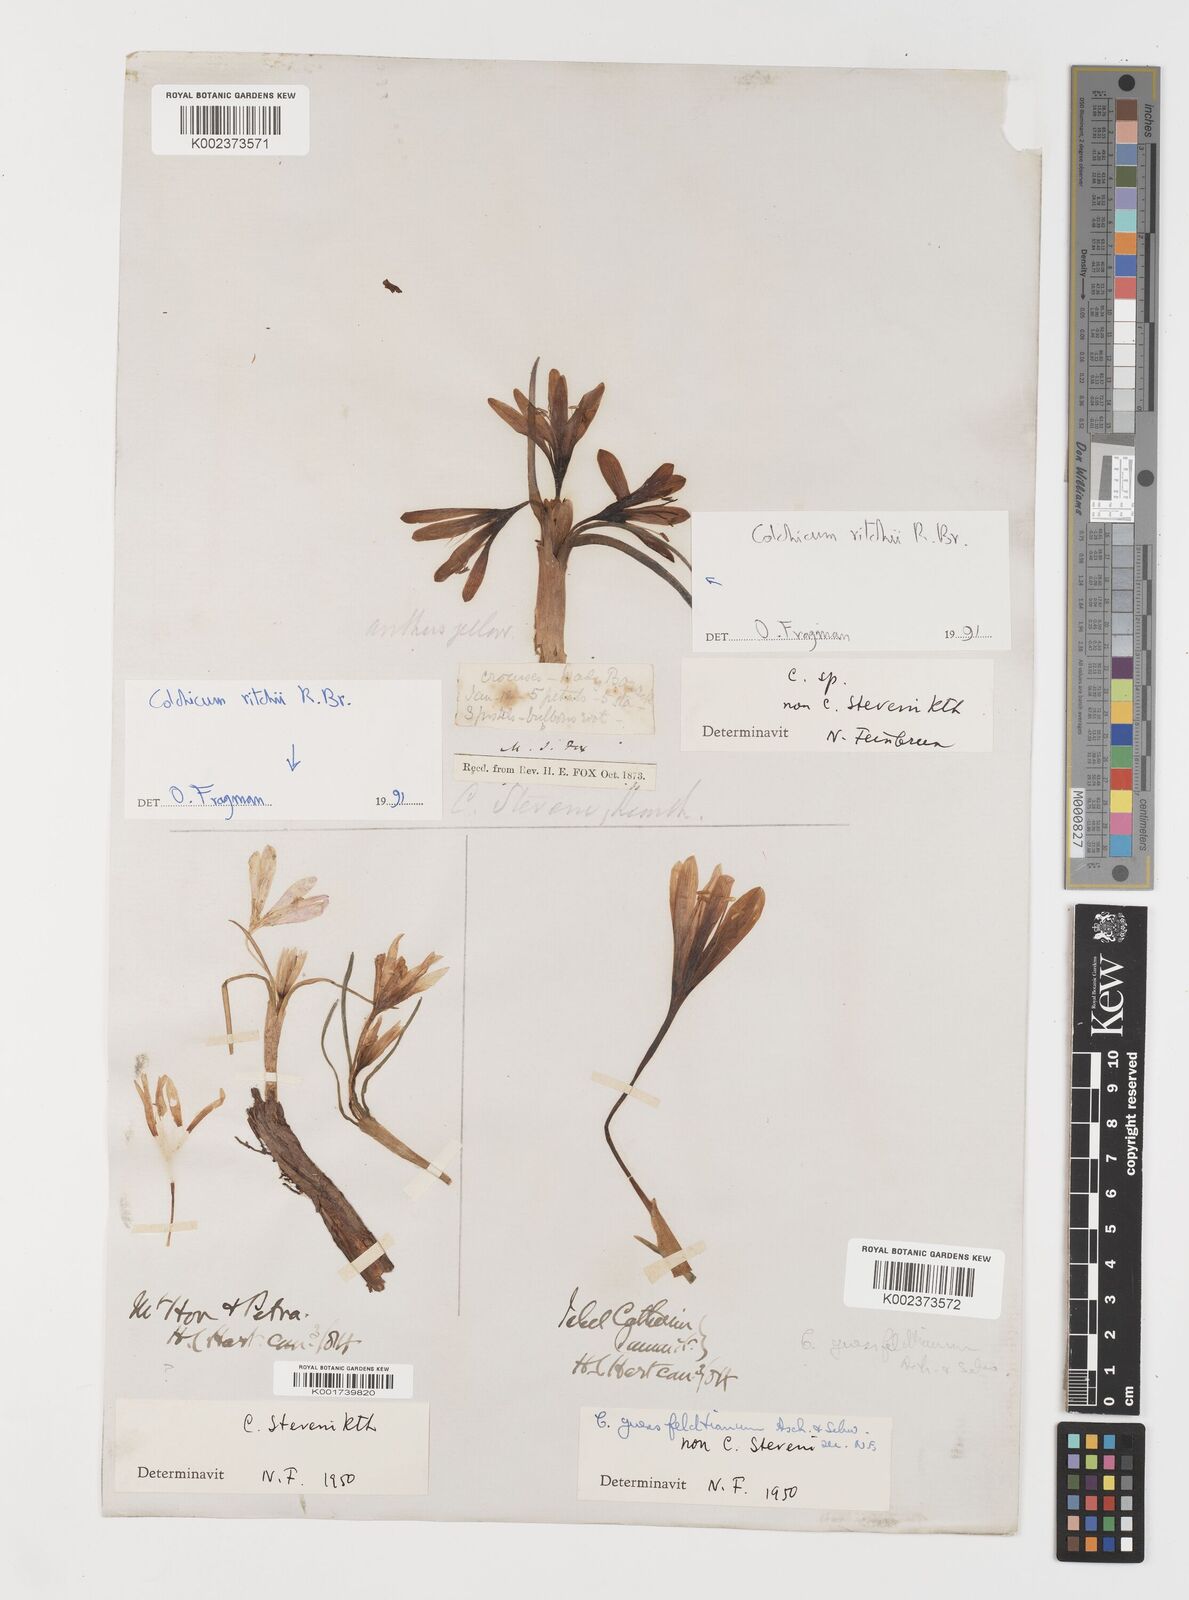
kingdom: Plantae
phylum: Tracheophyta
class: Liliopsida
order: Liliales
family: Colchicaceae
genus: Colchicum
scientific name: Colchicum ritchii
